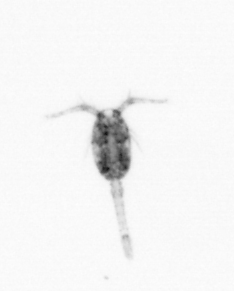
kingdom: Animalia
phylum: Arthropoda
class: Copepoda
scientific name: Copepoda
